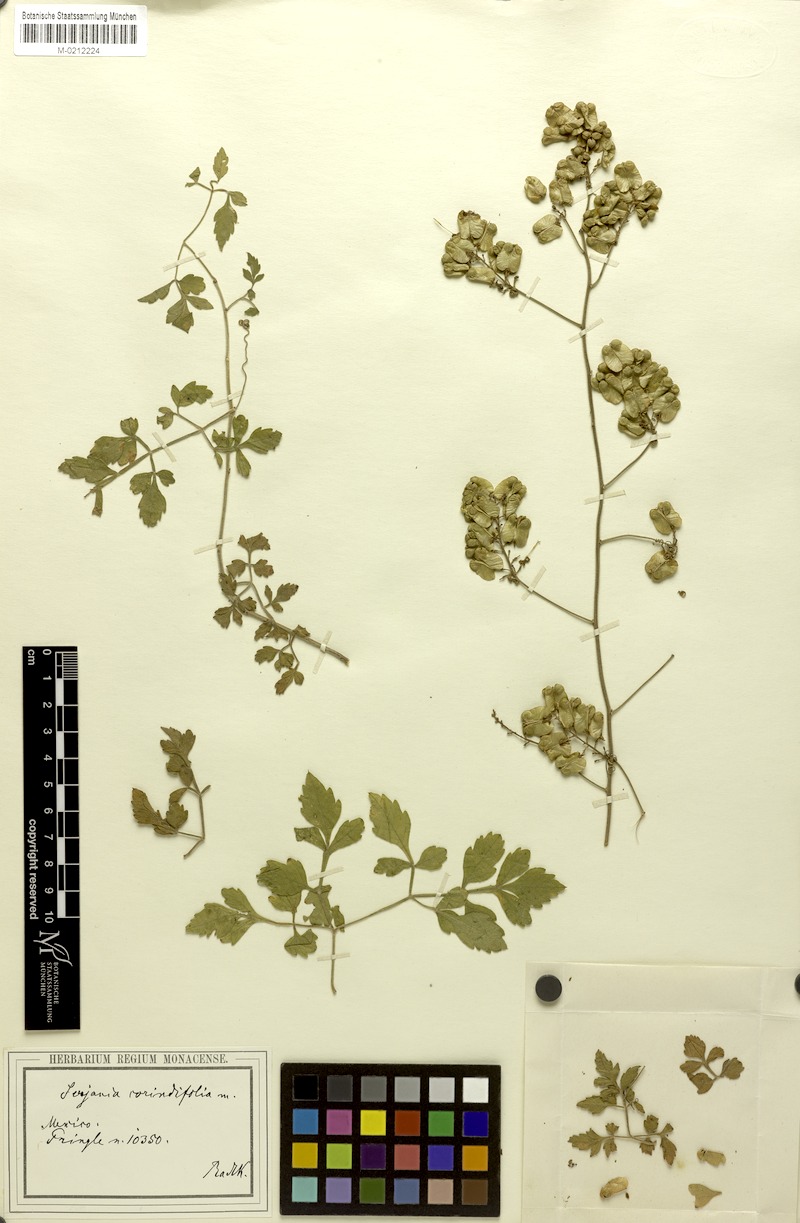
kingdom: Plantae
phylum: Tracheophyta
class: Magnoliopsida
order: Sapindales
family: Sapindaceae
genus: Serjania
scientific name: Serjania corindifolia
